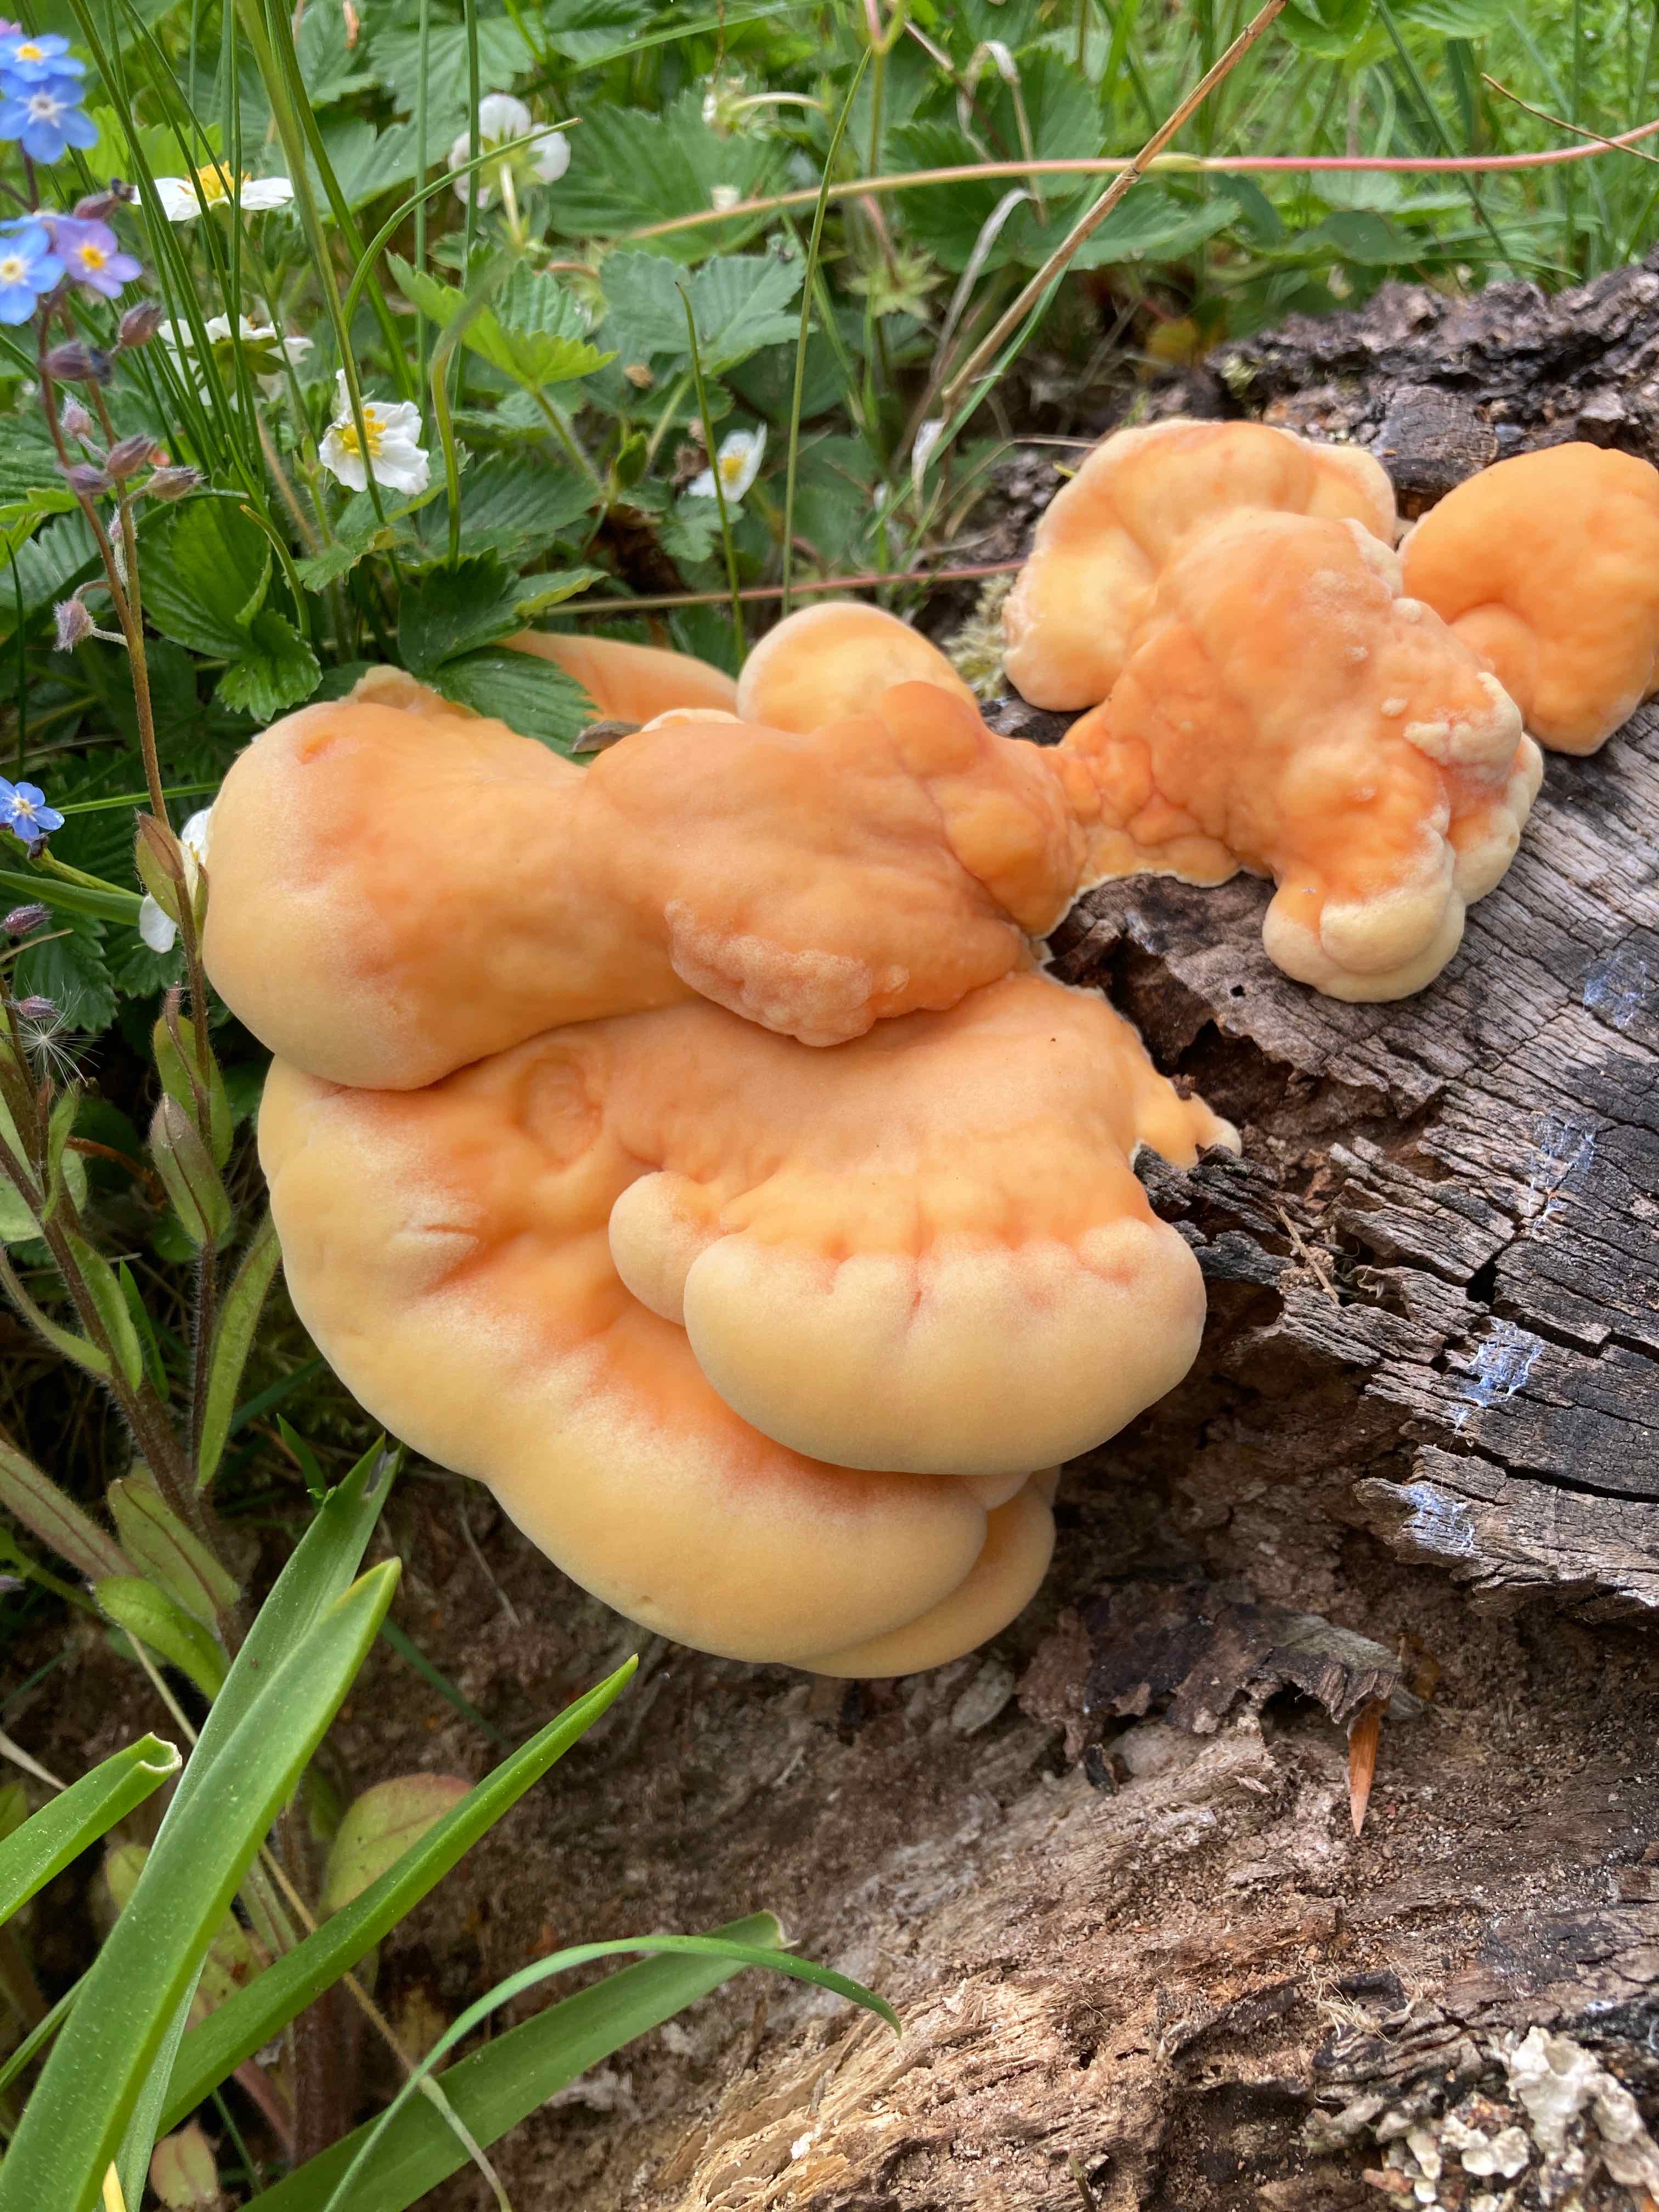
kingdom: Fungi
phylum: Basidiomycota
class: Agaricomycetes
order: Polyporales
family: Laetiporaceae
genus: Laetiporus
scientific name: Laetiporus sulphureus
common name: svovlporesvamp
